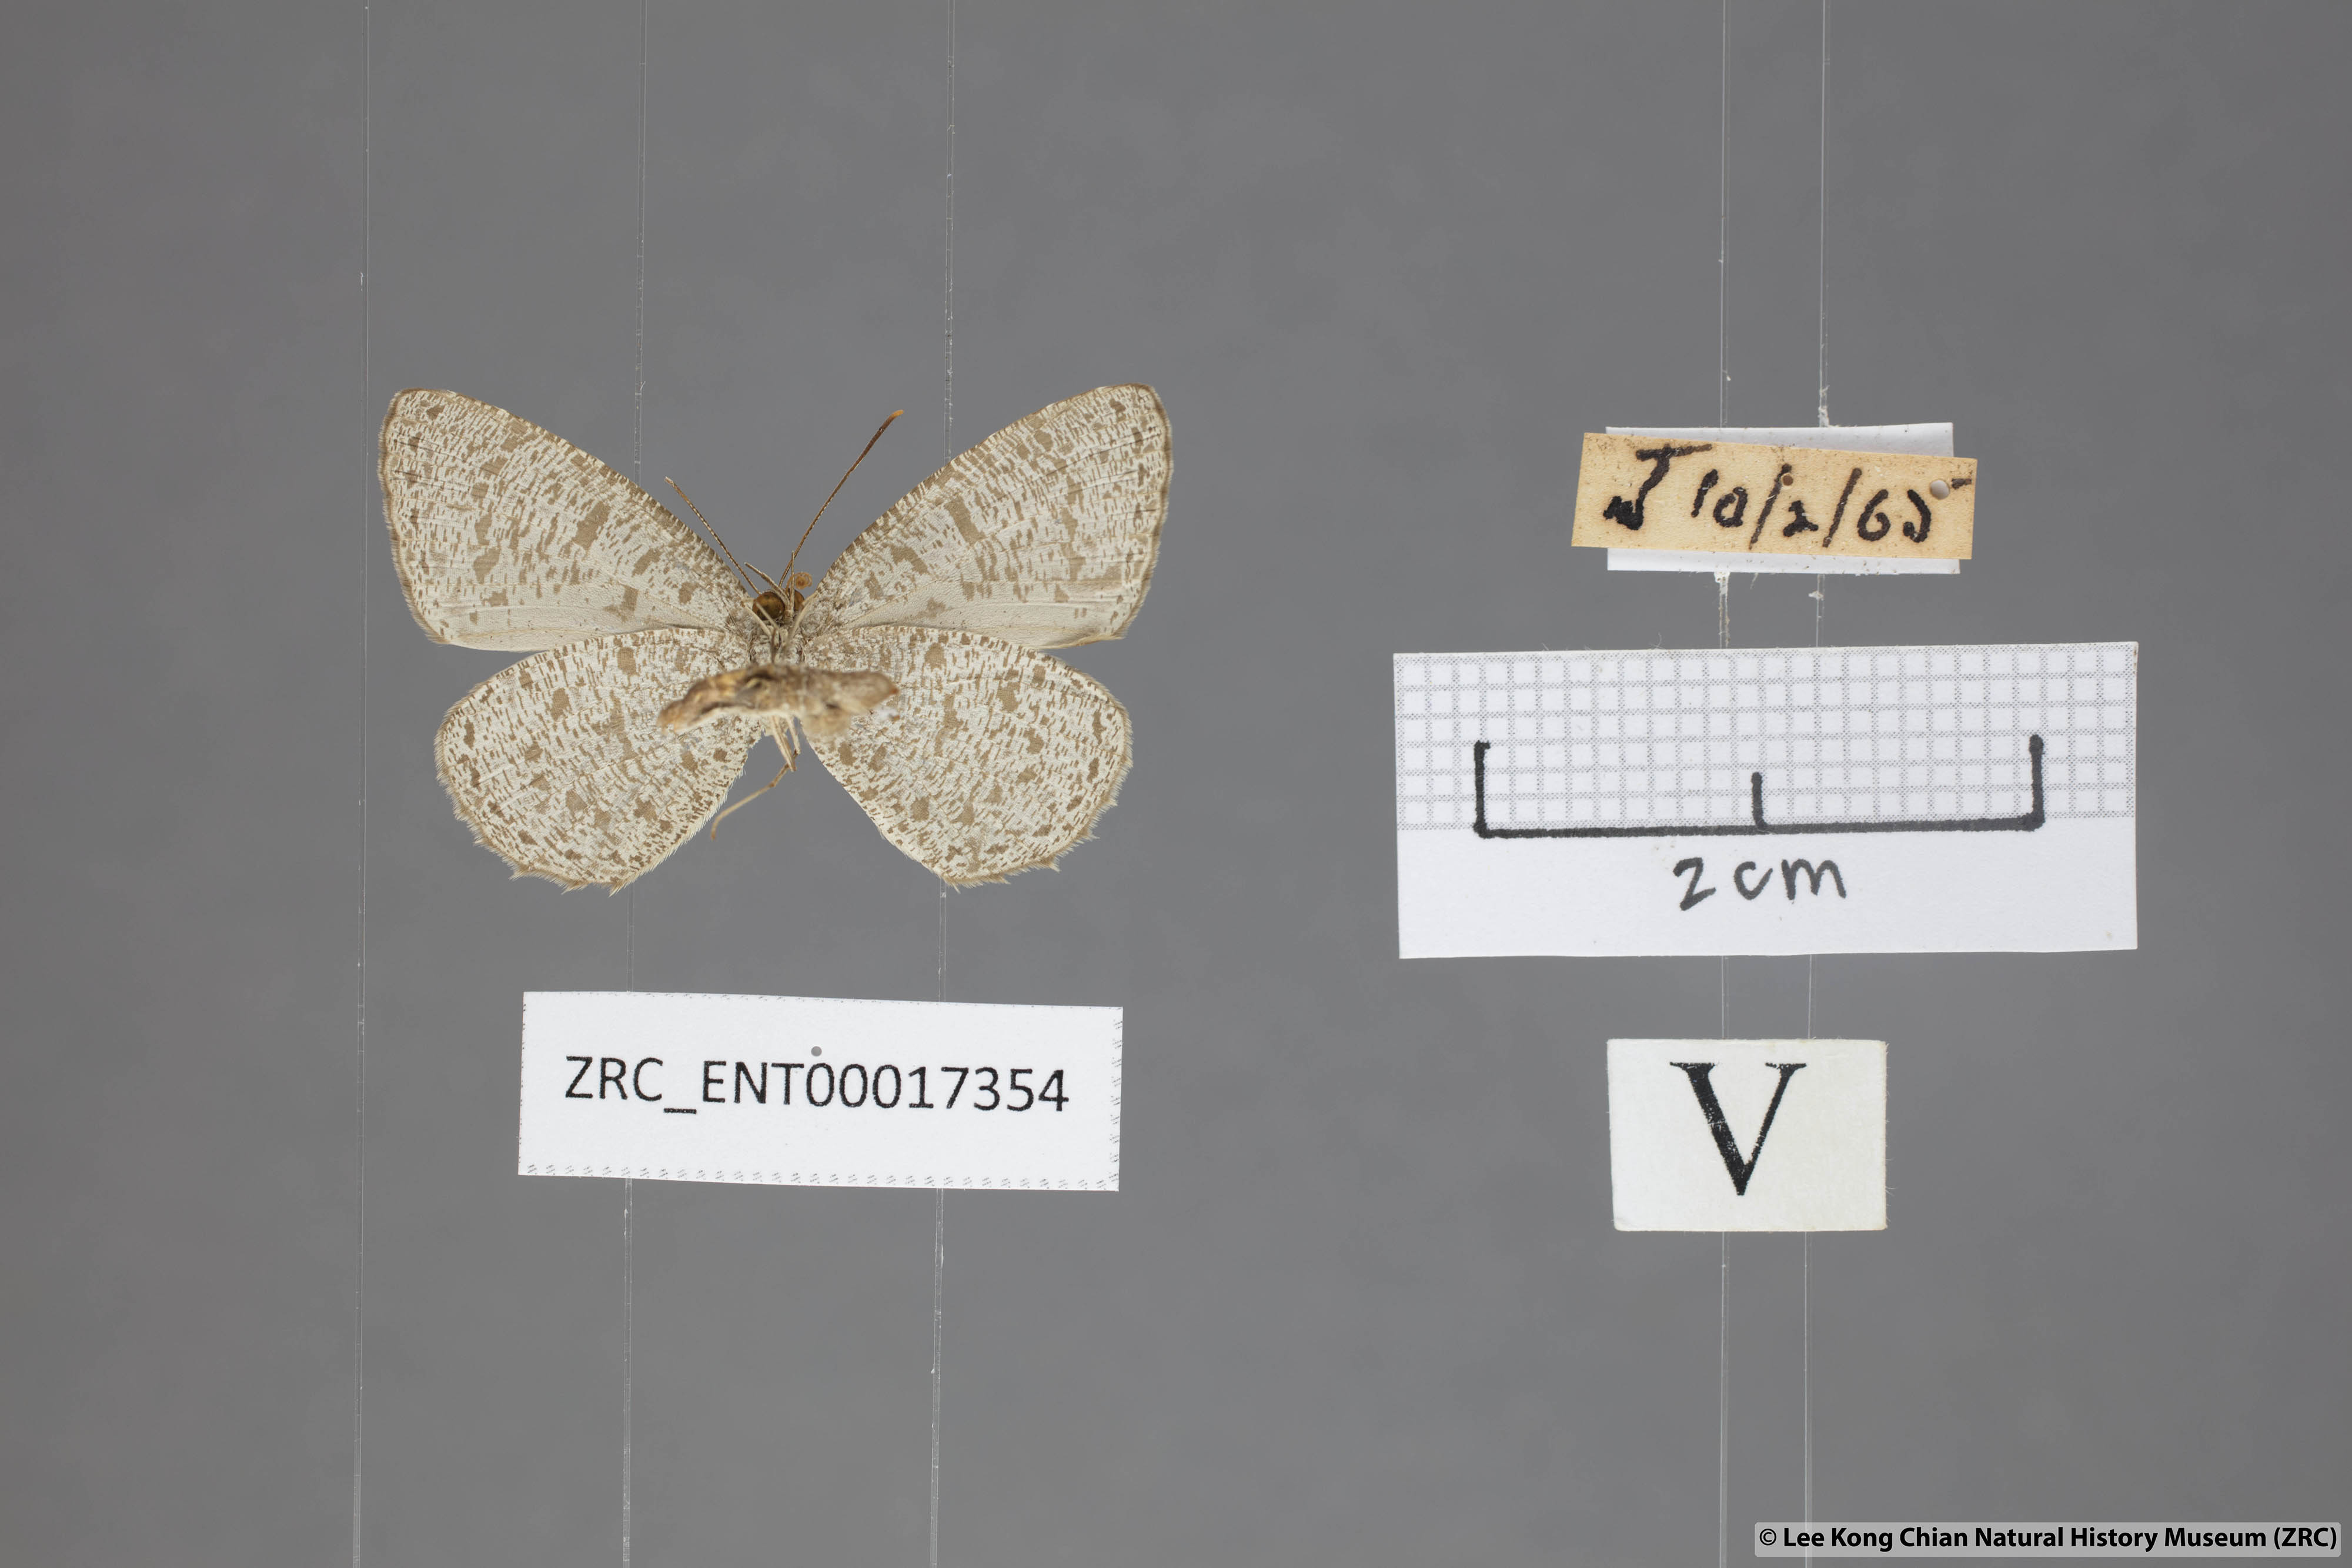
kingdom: Animalia
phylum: Arthropoda
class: Insecta
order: Lepidoptera
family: Lycaenidae
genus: Allotinus
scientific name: Allotinus unicolor
